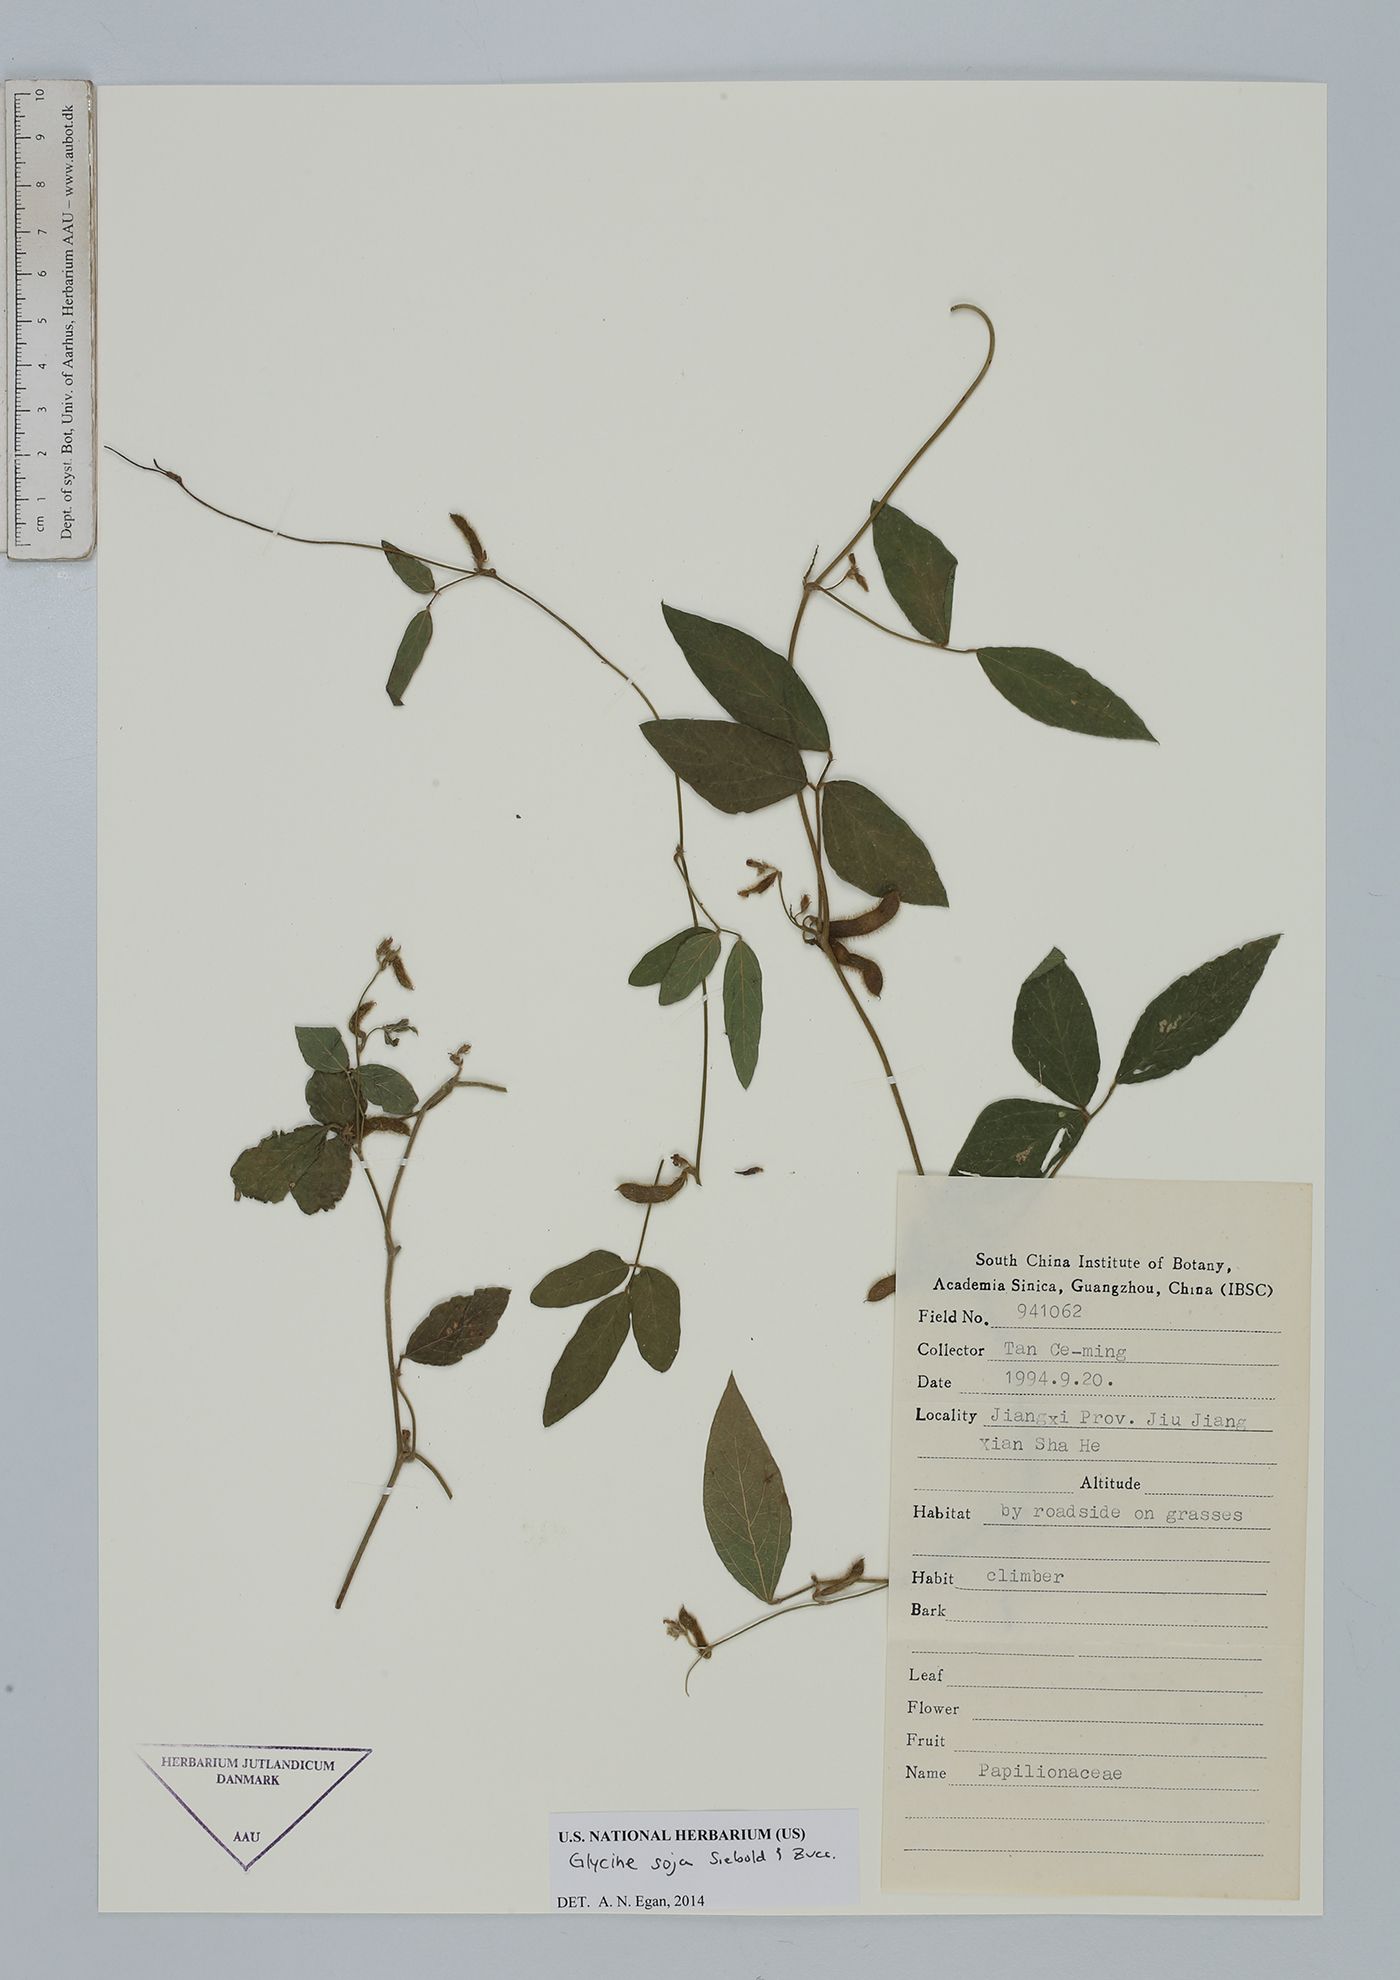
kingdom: Plantae
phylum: Tracheophyta
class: Magnoliopsida
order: Fabales
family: Fabaceae
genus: Glycine
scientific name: Glycine max
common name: Soya-bean
